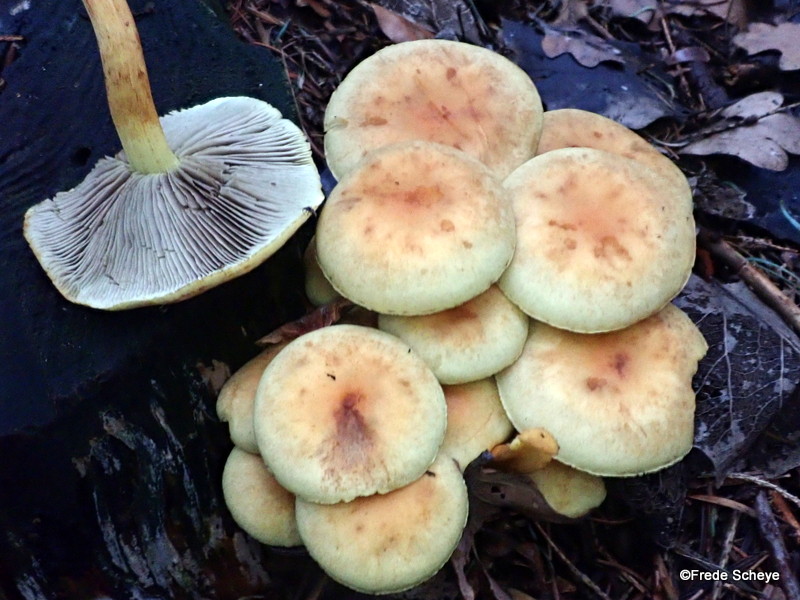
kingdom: Fungi
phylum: Basidiomycota
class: Agaricomycetes
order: Agaricales
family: Strophariaceae
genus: Hypholoma
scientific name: Hypholoma fasciculare
